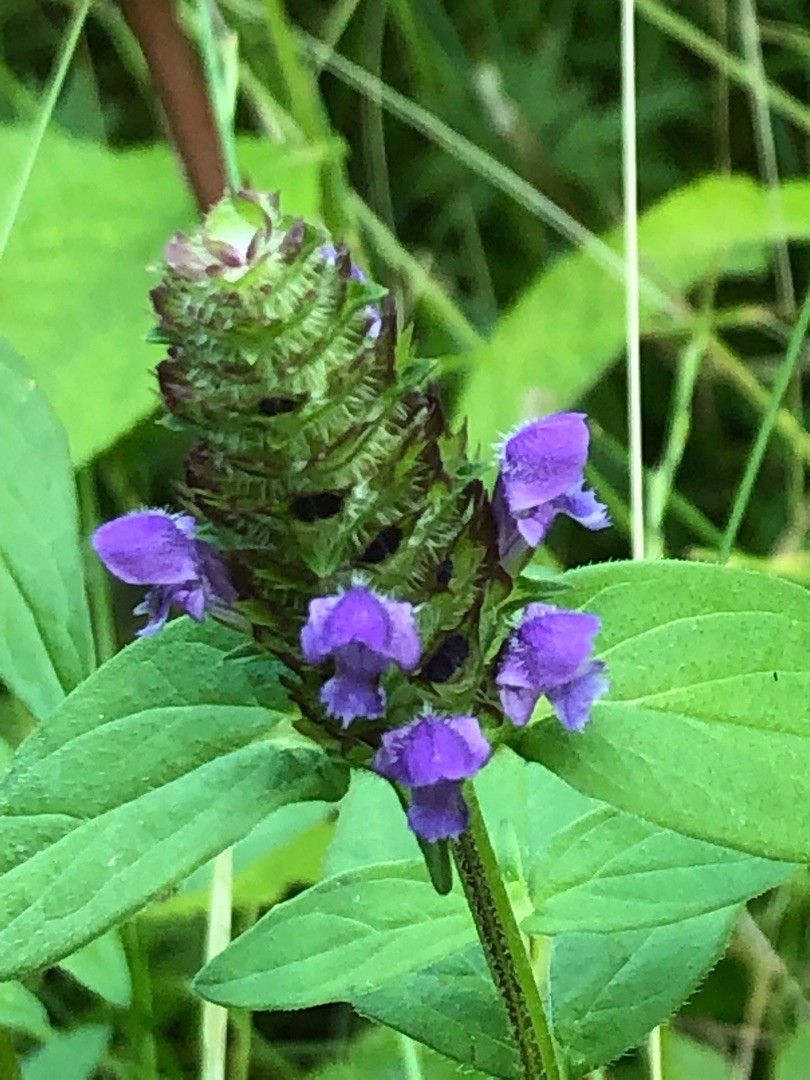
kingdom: Plantae
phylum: Tracheophyta
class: Magnoliopsida
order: Lamiales
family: Lamiaceae
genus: Prunella
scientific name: Prunella vulgaris
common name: Almindelig brunelle
